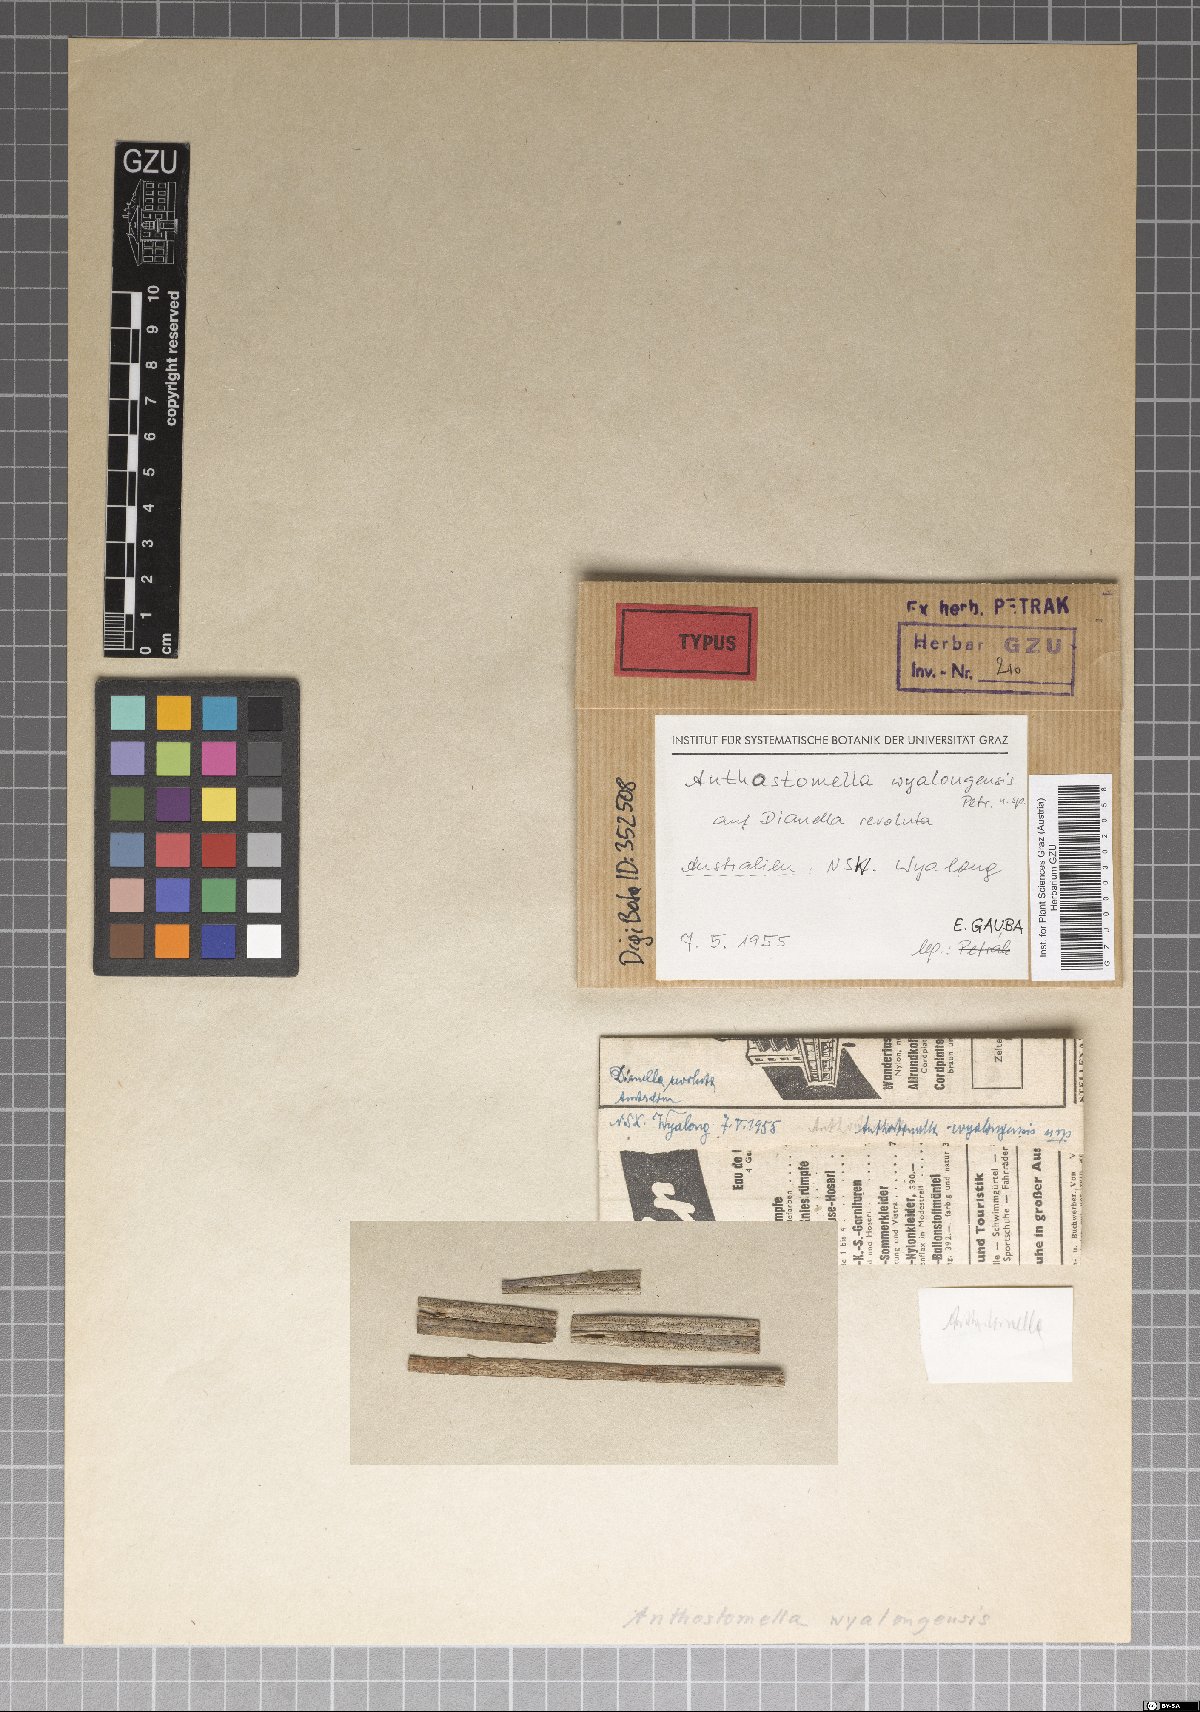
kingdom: Fungi
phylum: Ascomycota
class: Sordariomycetes
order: Xylariales
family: Xylariaceae
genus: Anthostomella
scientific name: Anthostomella wyalongensis
